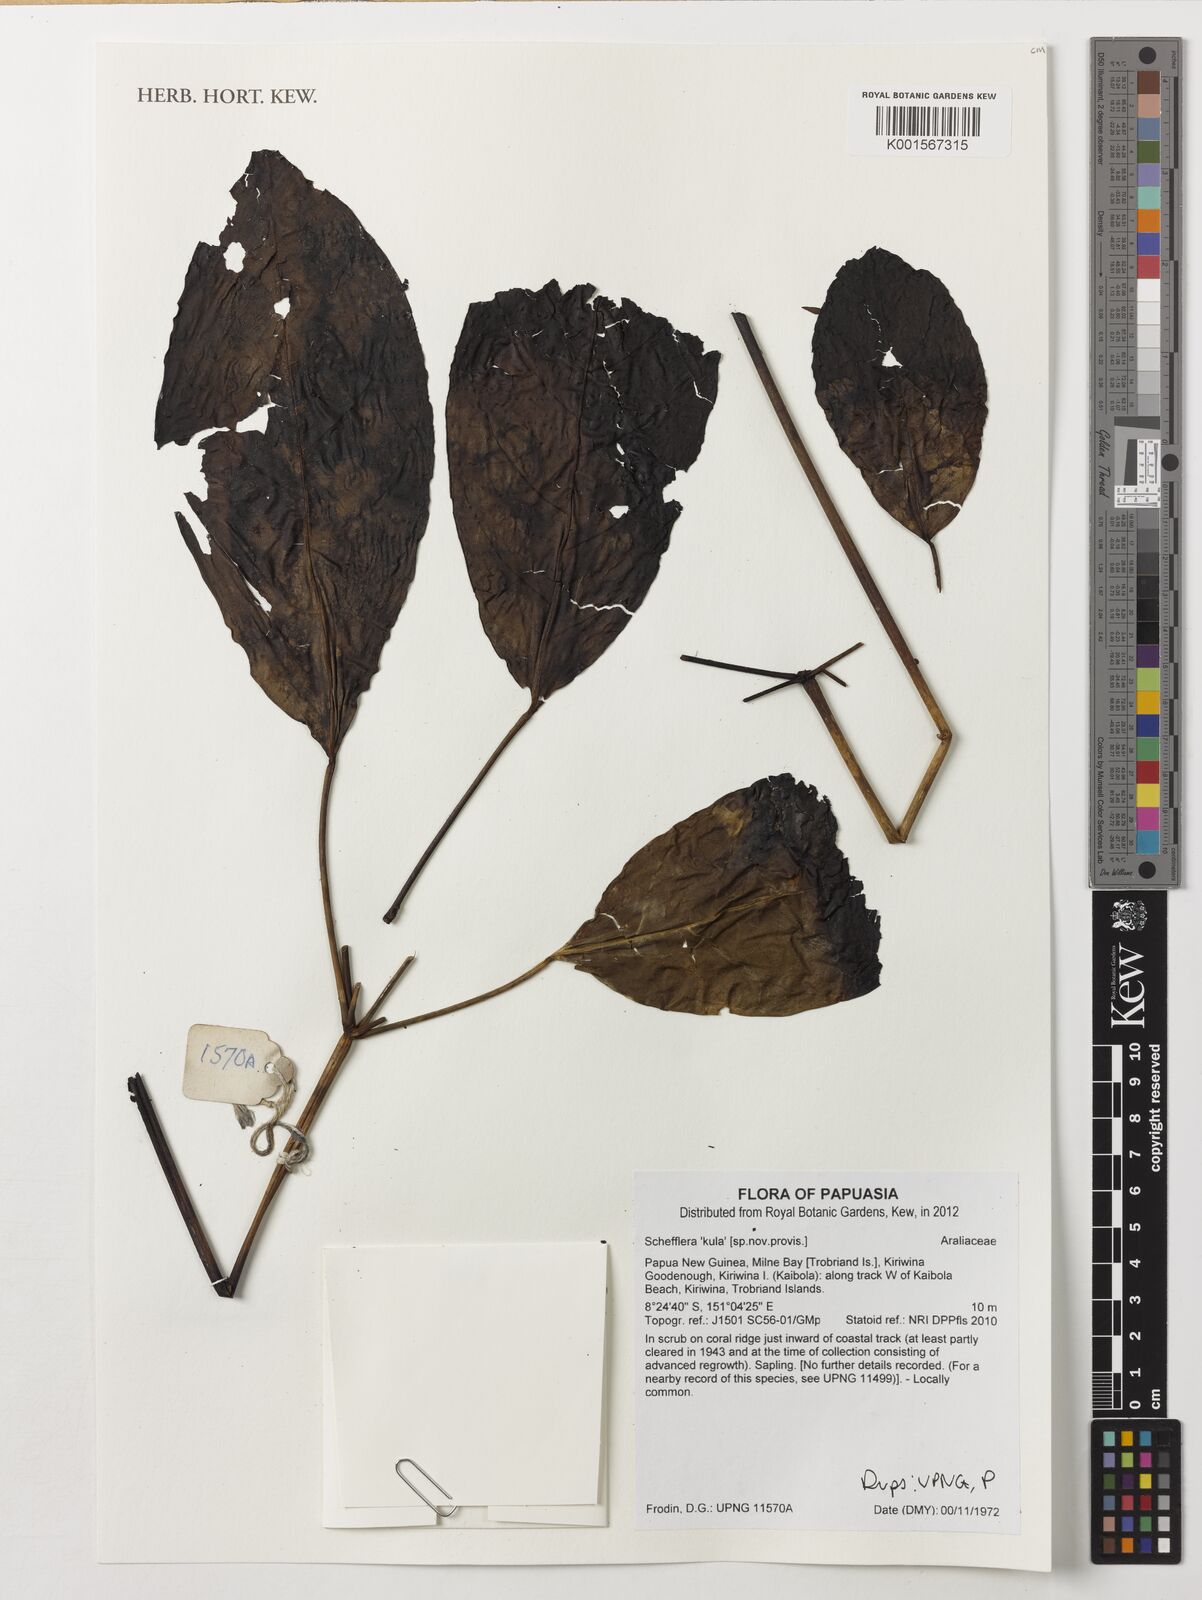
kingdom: Plantae
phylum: Tracheophyta
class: Magnoliopsida
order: Apiales
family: Araliaceae
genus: Schefflera
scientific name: Schefflera
